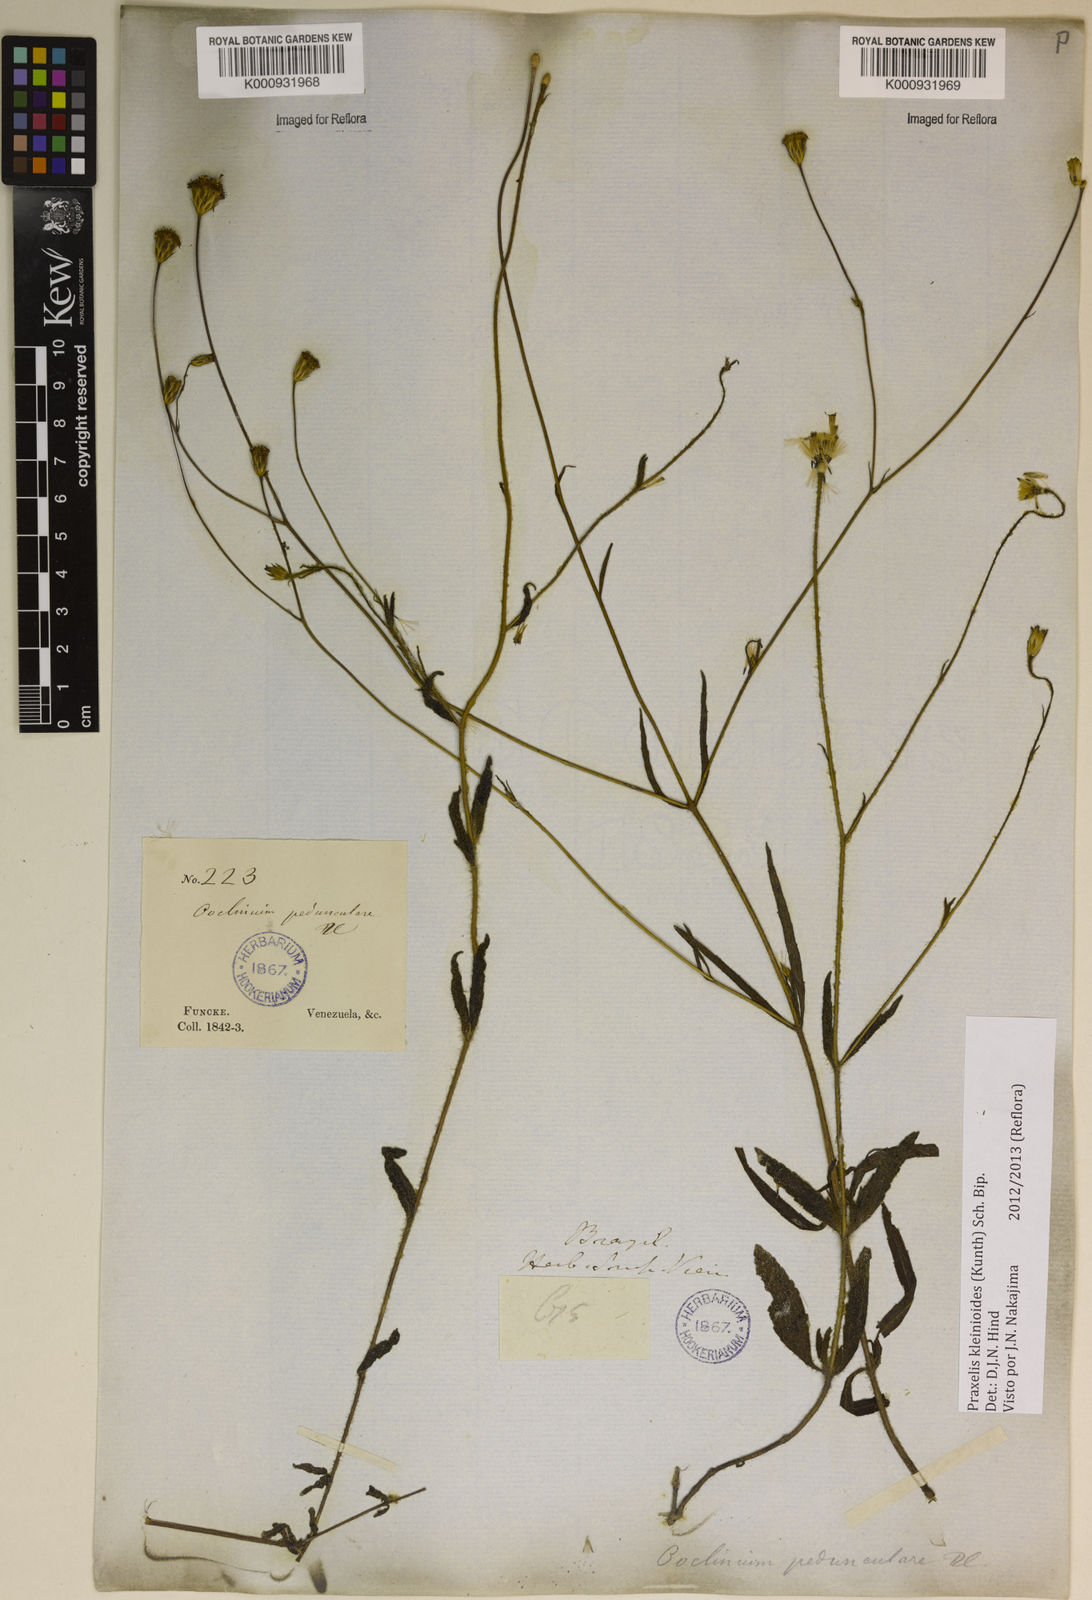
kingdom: Plantae
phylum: Tracheophyta
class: Magnoliopsida
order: Asterales
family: Asteraceae
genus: Praxelis
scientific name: Praxelis kleinioides
